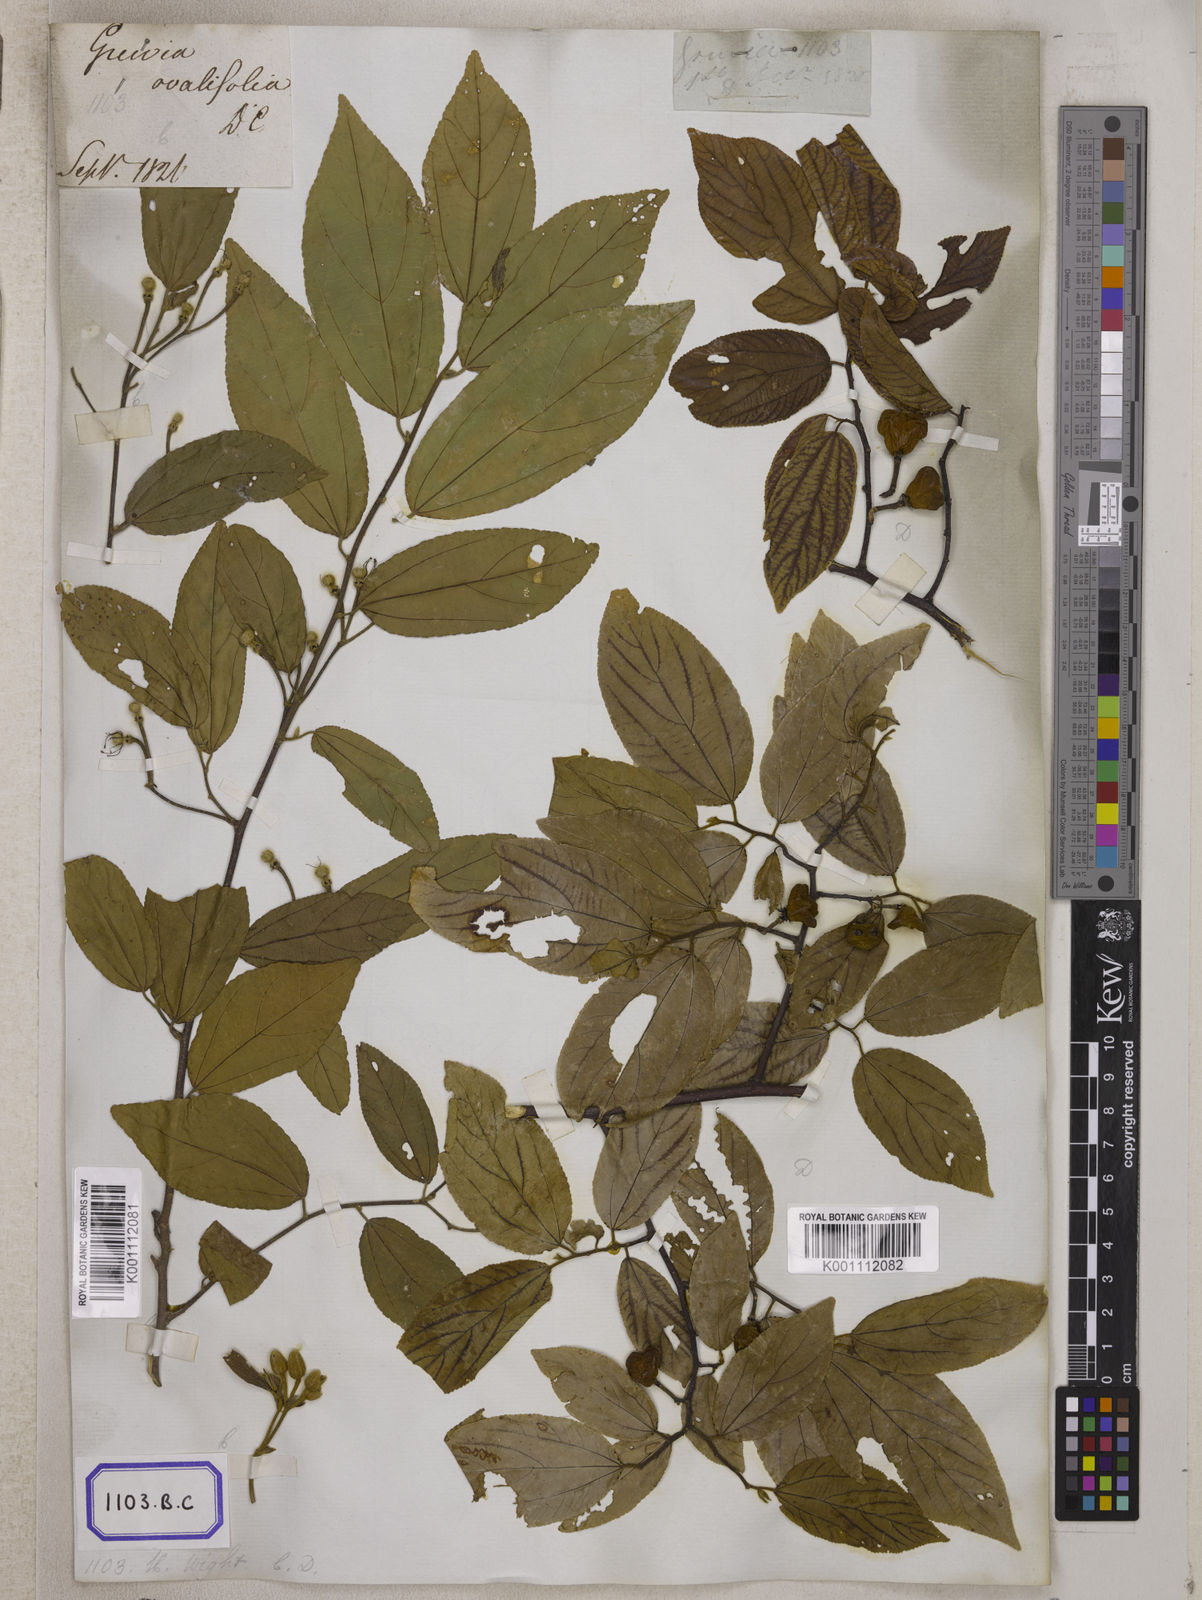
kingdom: Plantae
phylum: Tracheophyta
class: Magnoliopsida
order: Malvales
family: Malvaceae
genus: Grewia
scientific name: Grewia
